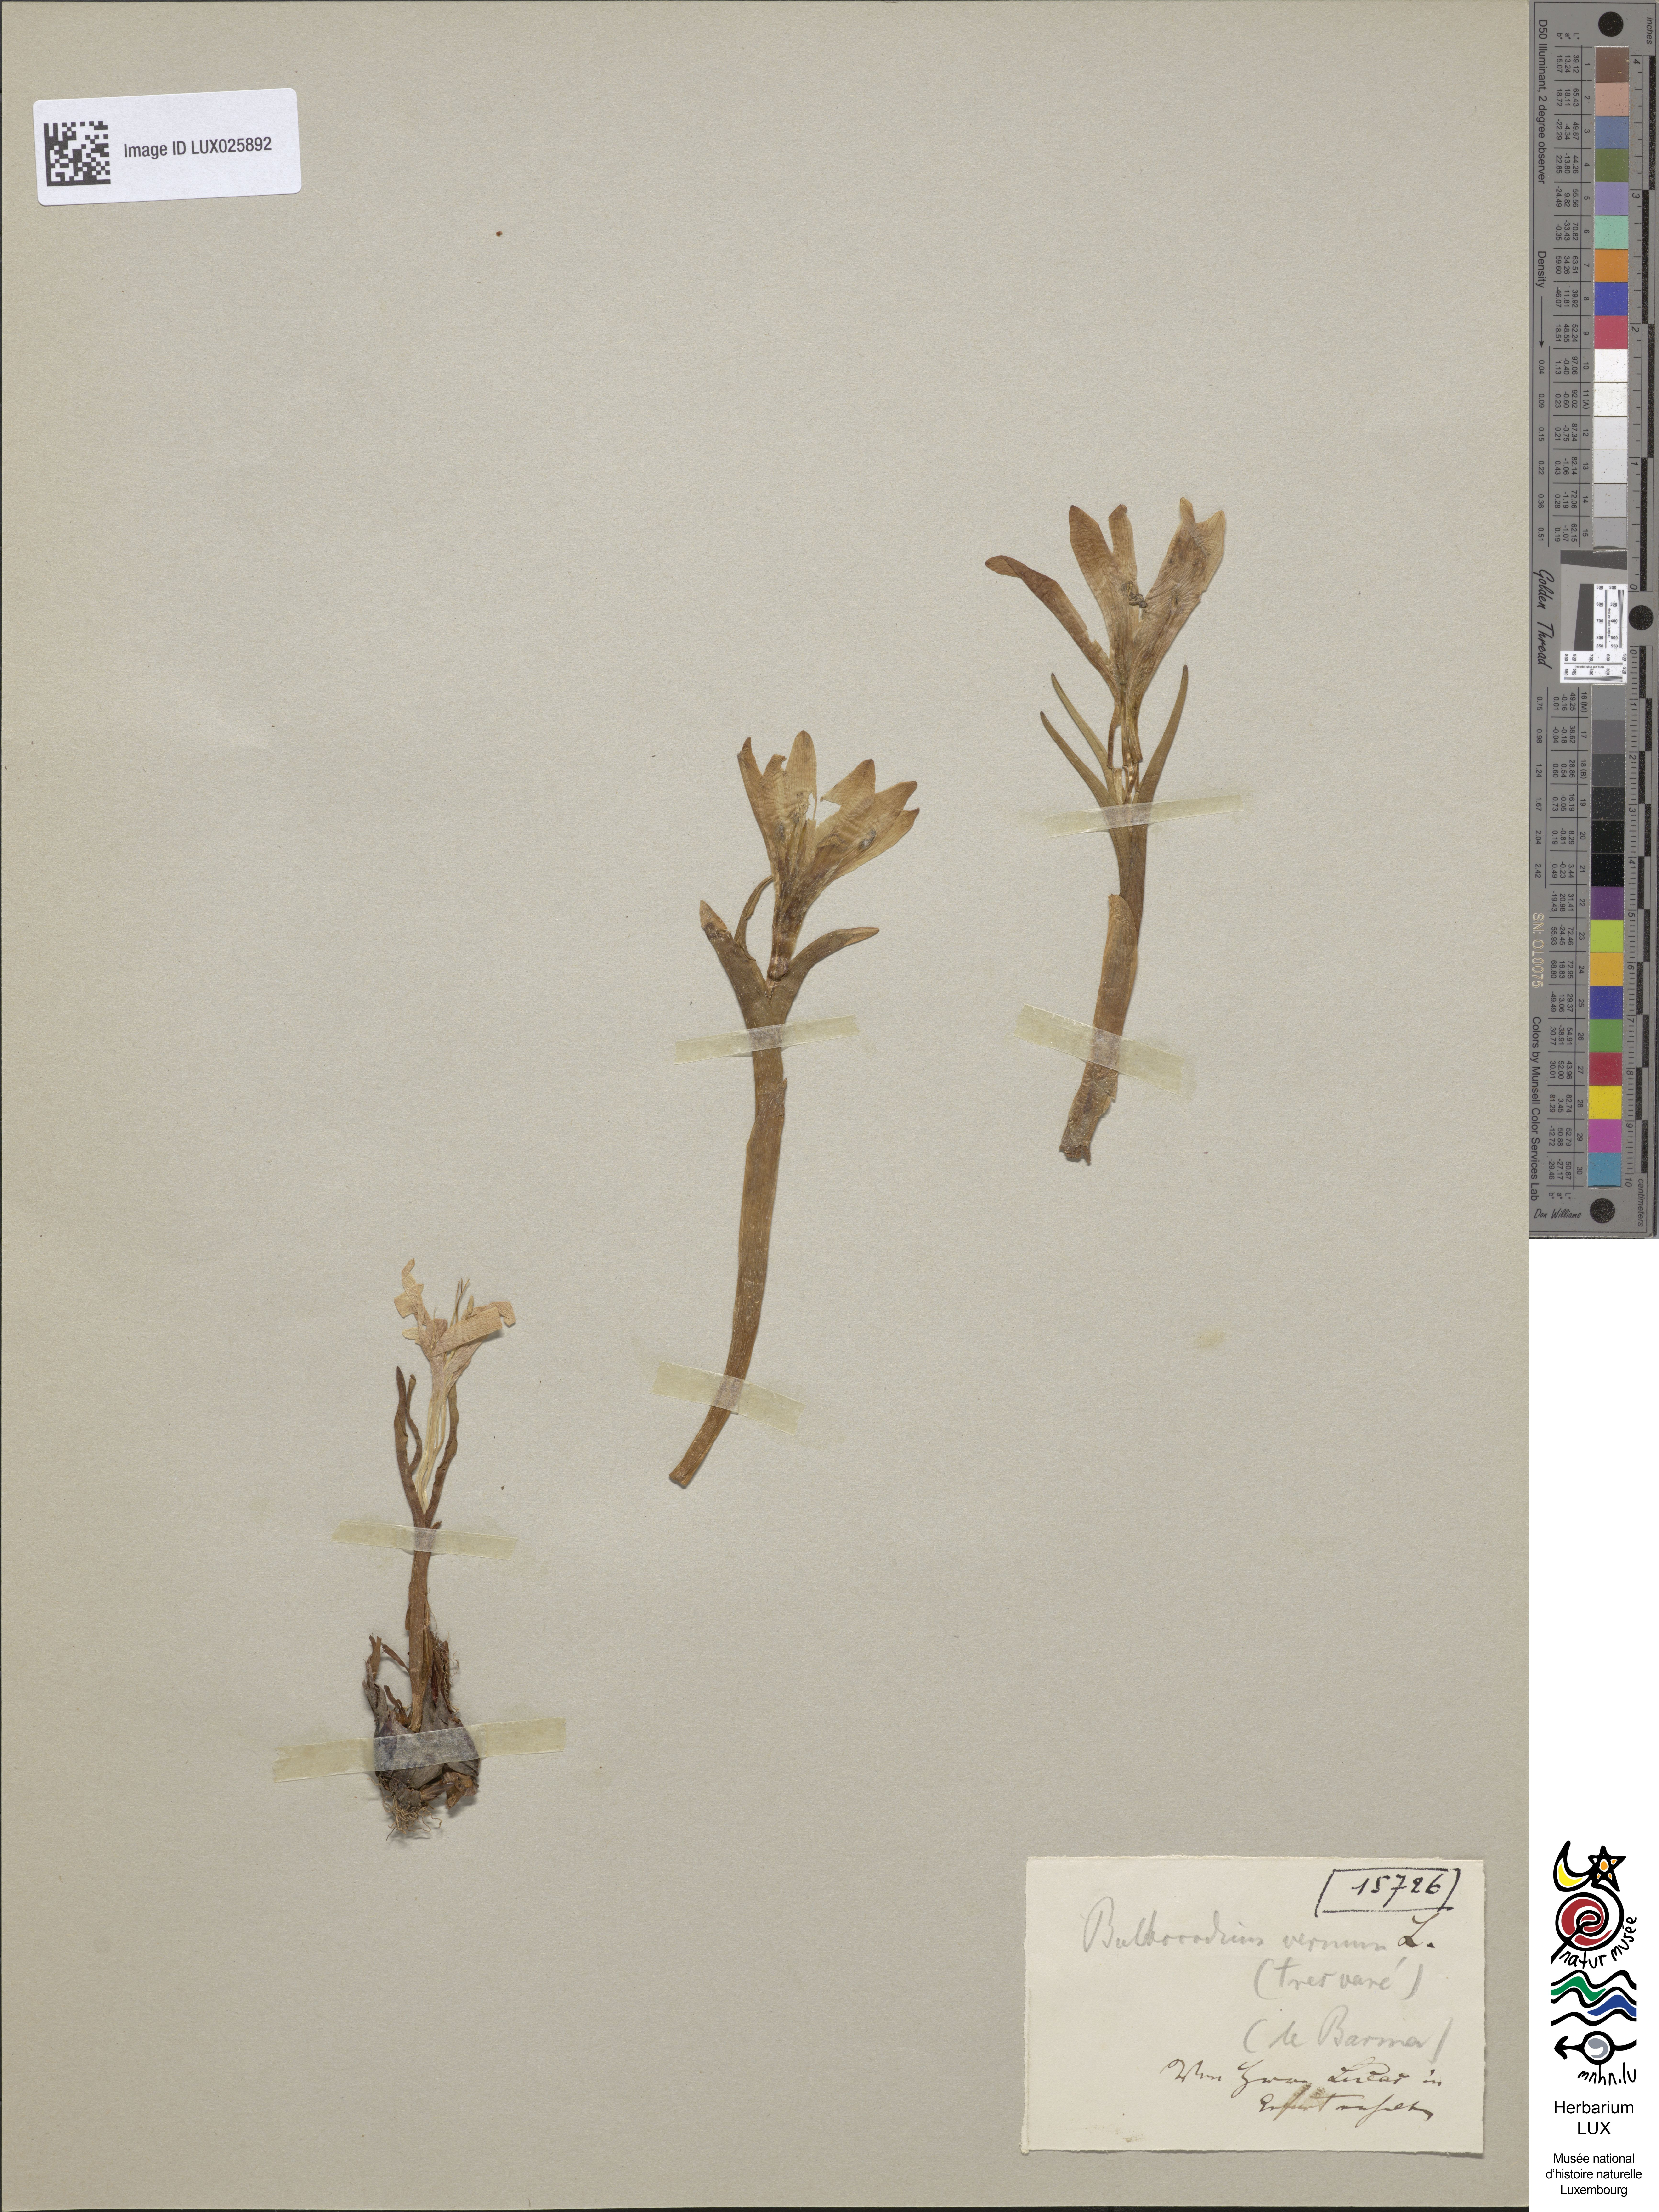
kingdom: Plantae
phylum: Tracheophyta
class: Liliopsida
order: Liliales
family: Colchicaceae
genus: Colchicum
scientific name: Colchicum bulbocodium
